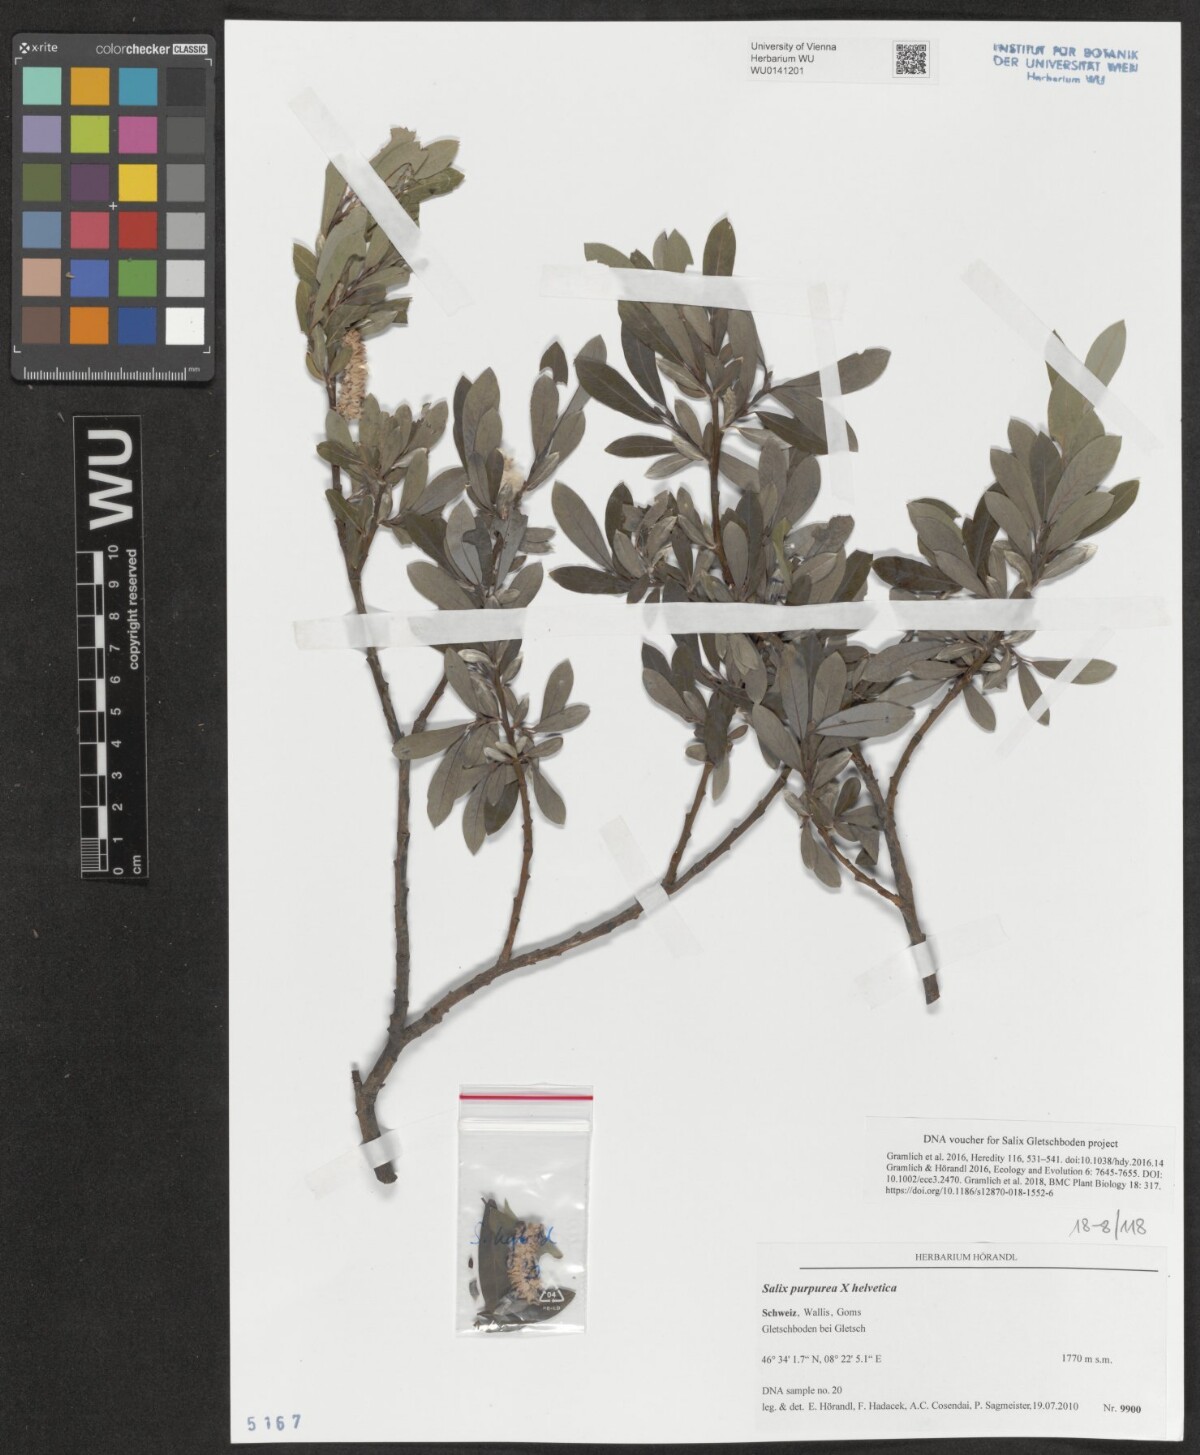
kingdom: Plantae
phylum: Tracheophyta
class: Magnoliopsida
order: Malpighiales
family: Salicaceae
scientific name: Salicaceae
